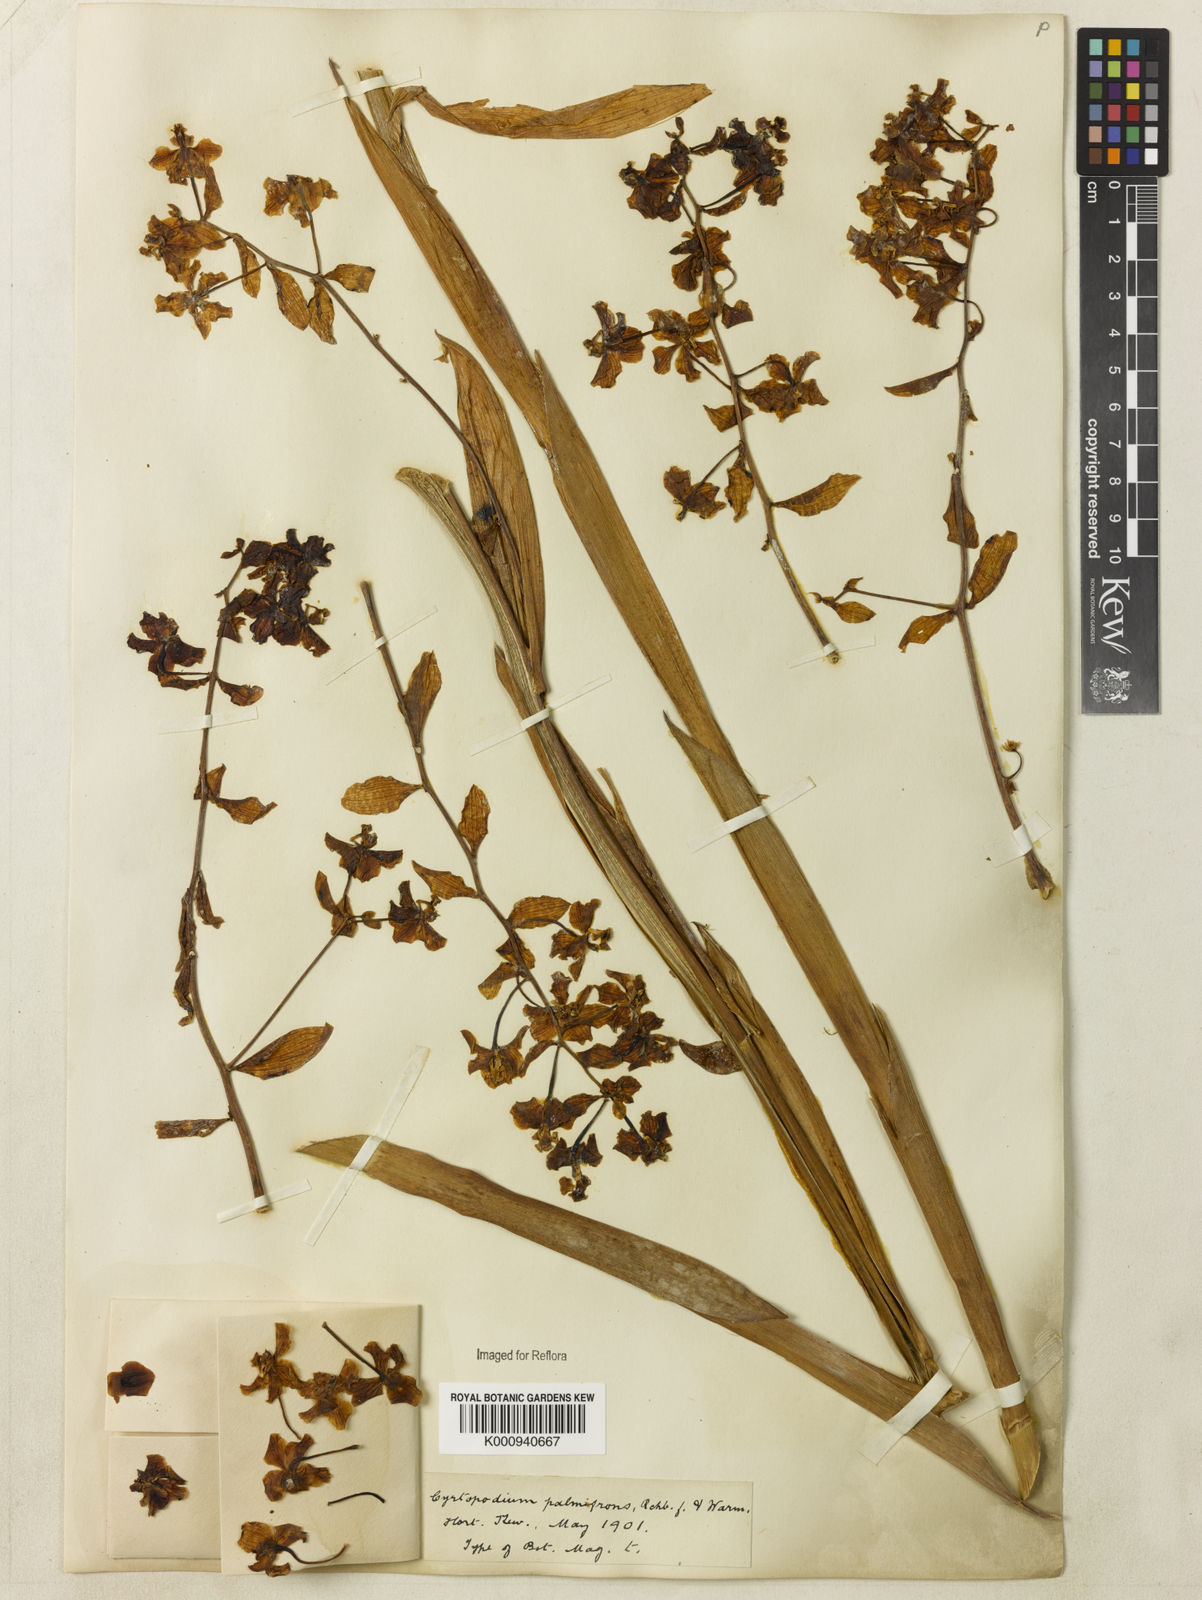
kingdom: Plantae
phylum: Tracheophyta
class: Liliopsida
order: Asparagales
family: Orchidaceae
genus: Cyrtopodium
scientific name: Cyrtopodium palmifrons
